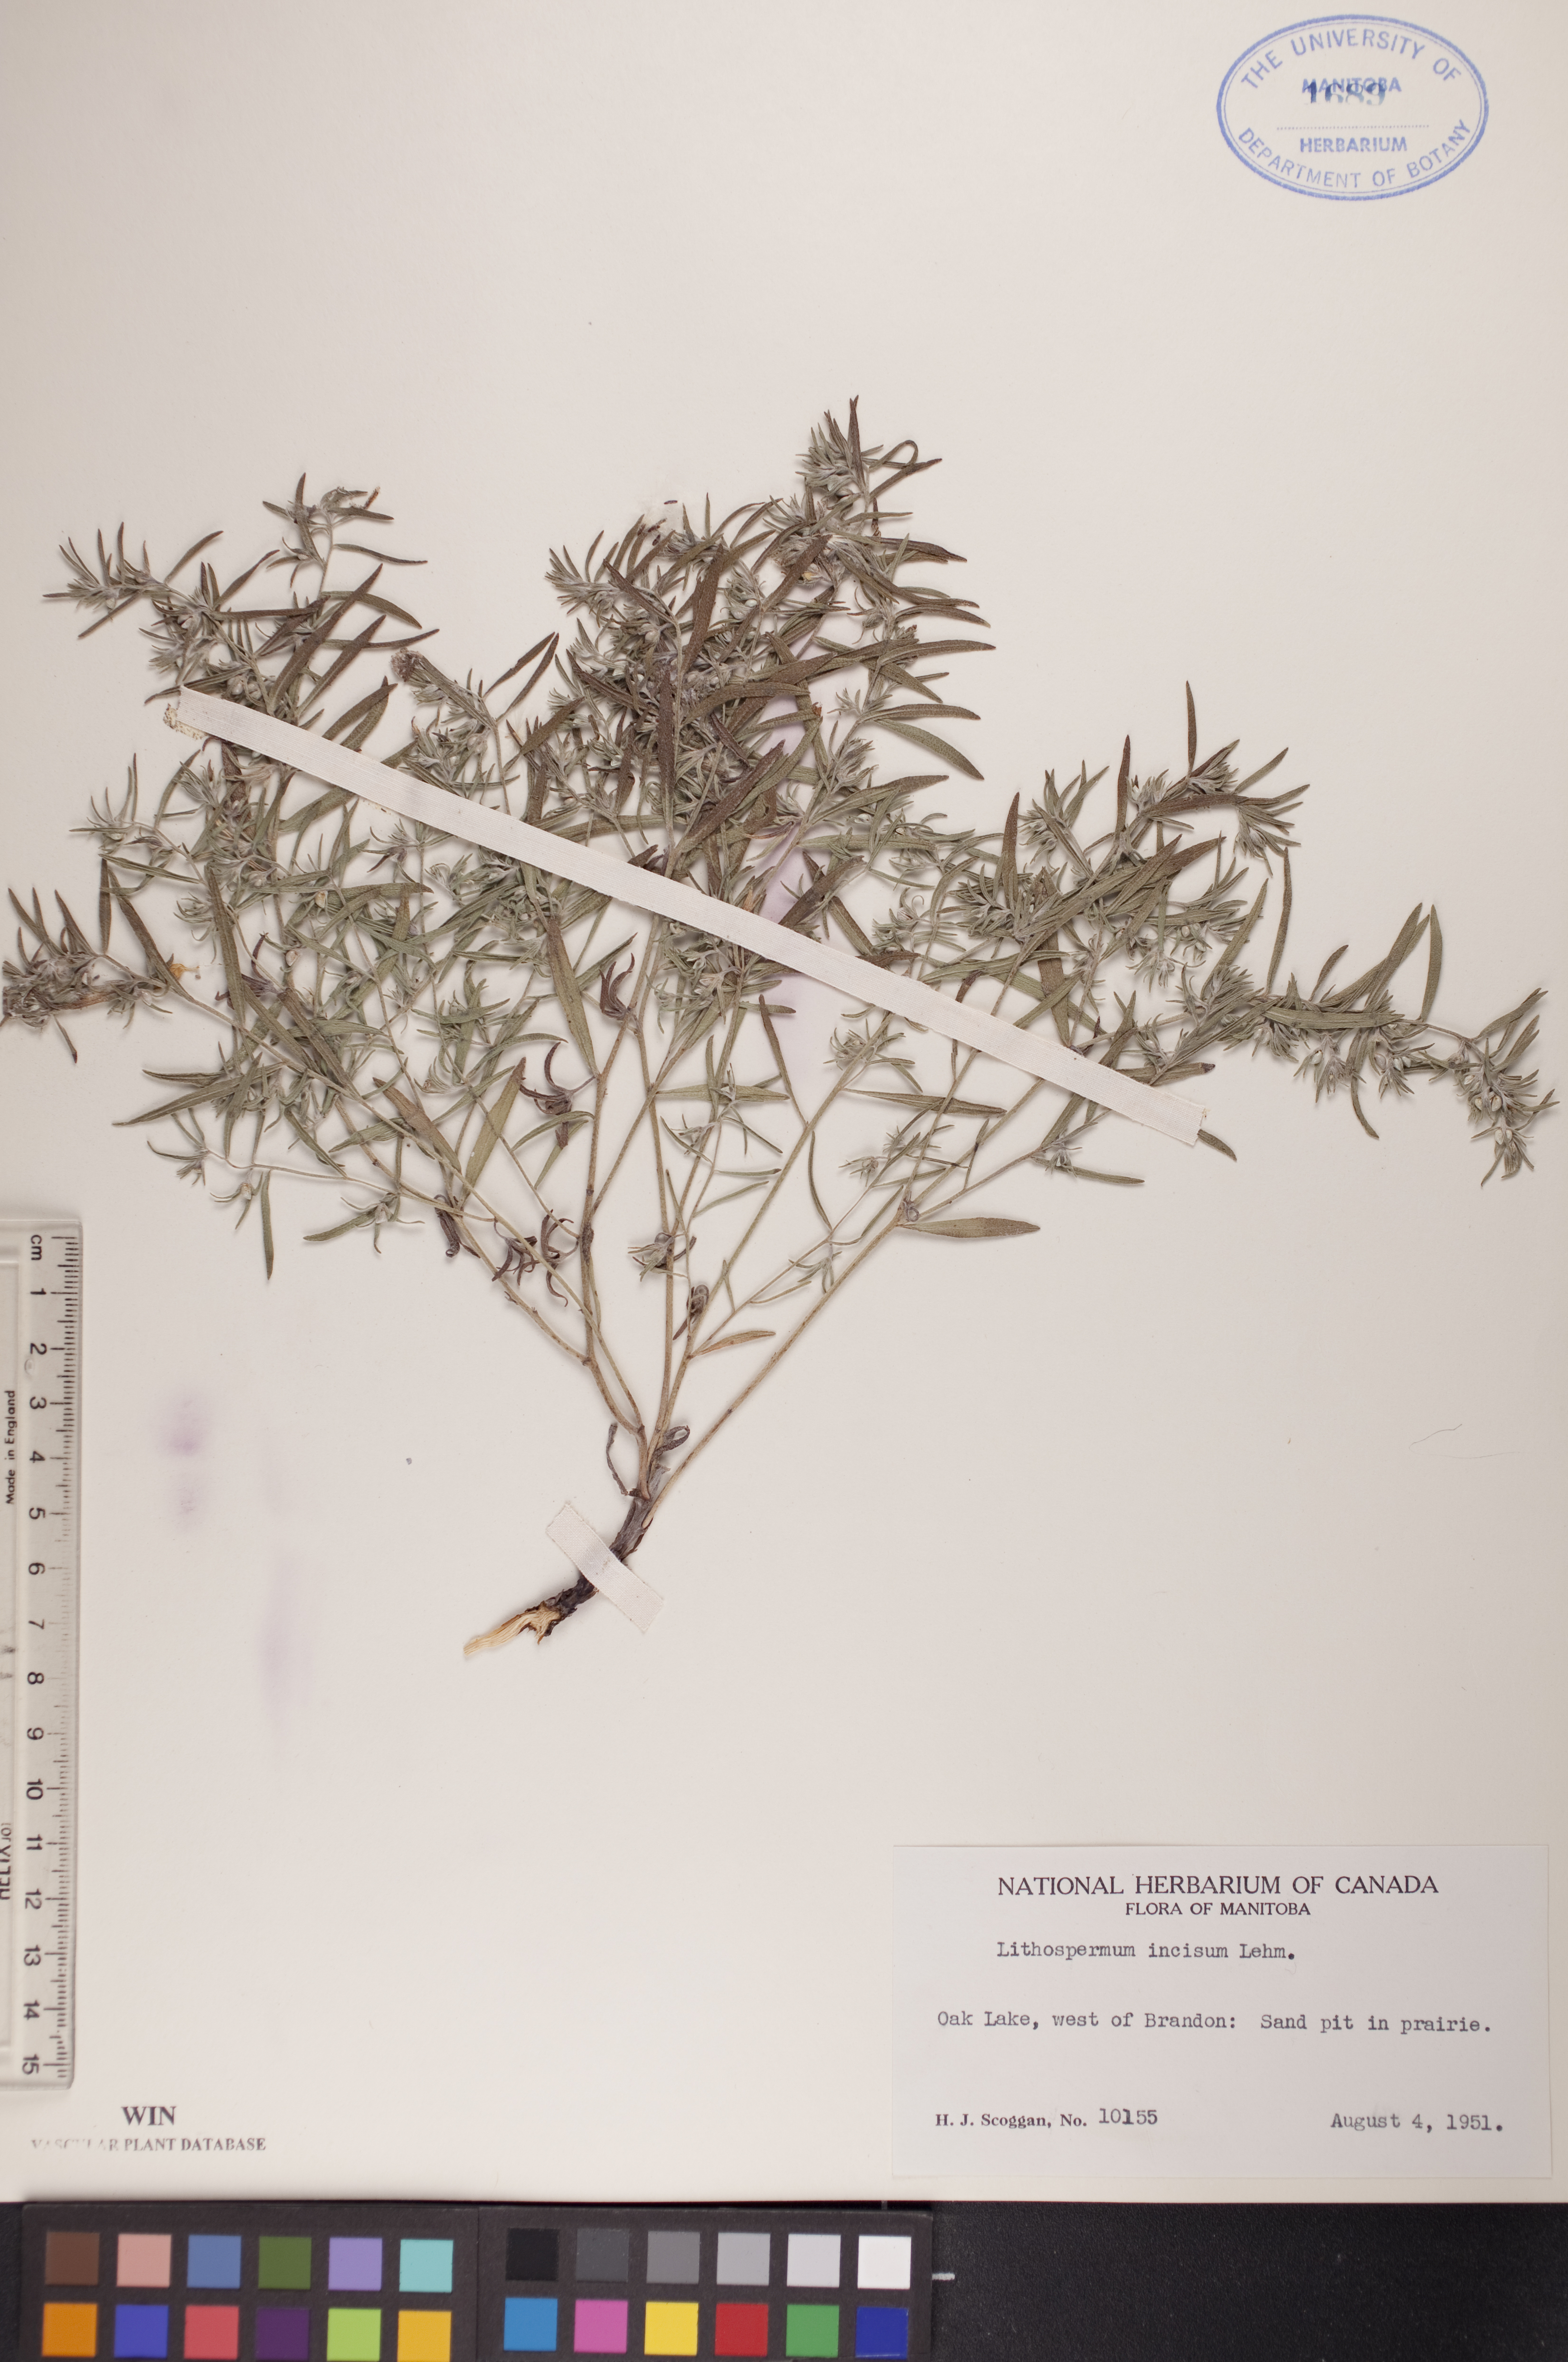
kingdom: Plantae
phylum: Tracheophyta
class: Magnoliopsida
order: Boraginales
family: Boraginaceae
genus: Lithospermum
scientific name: Lithospermum incisum
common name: Fringed gromwell
